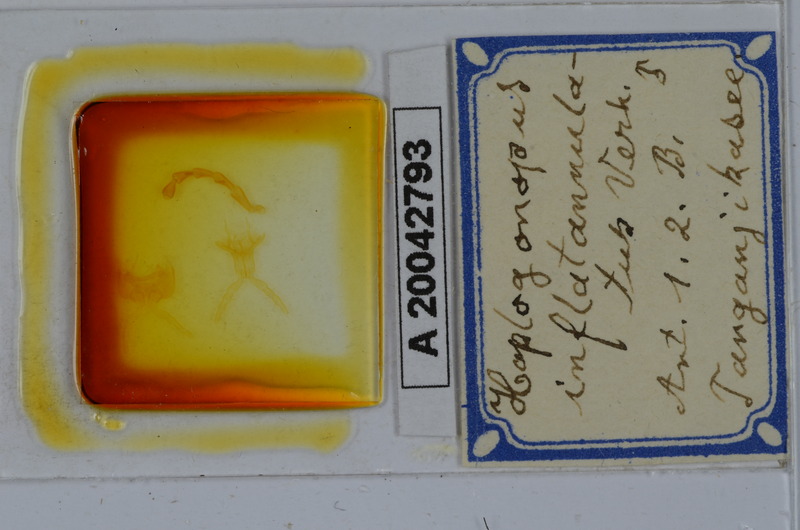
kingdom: Animalia
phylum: Arthropoda
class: Diplopoda
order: Spirostreptida
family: Spirostreptidae
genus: Haplogonopus
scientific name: Haplogonopus inflatannulatus
